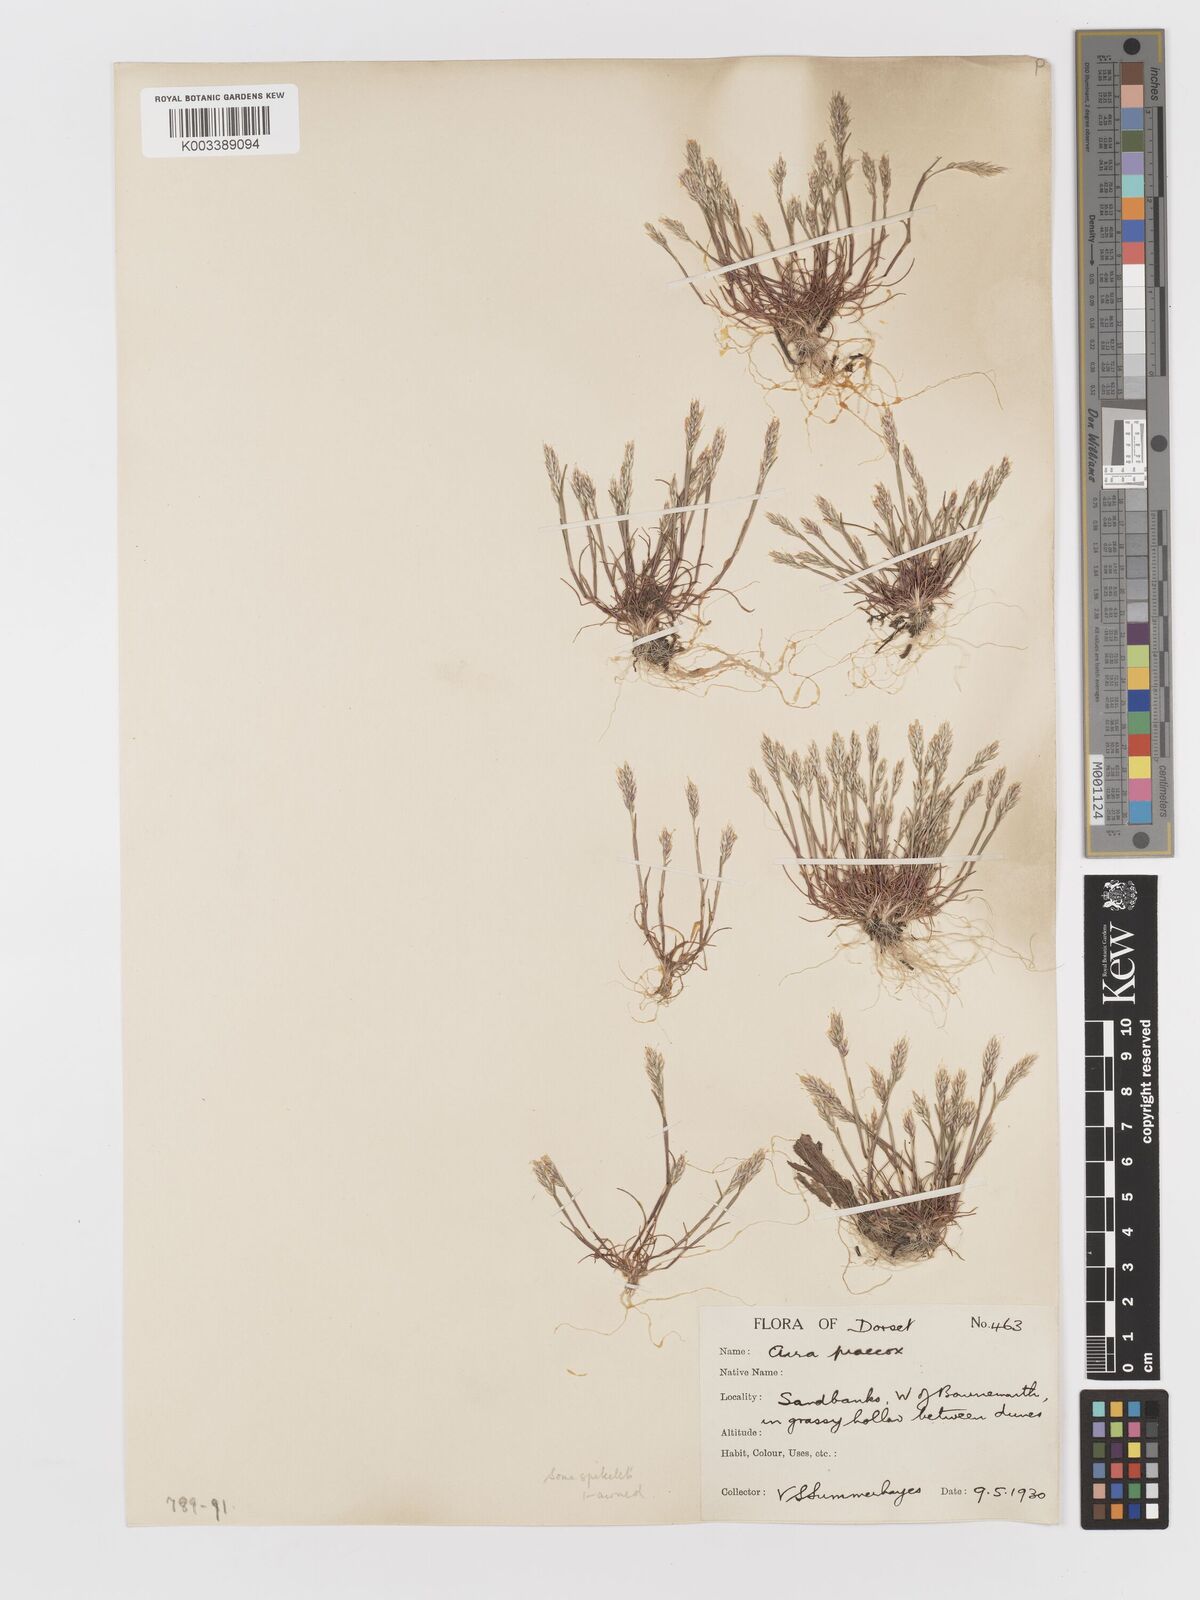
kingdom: Plantae
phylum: Tracheophyta
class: Liliopsida
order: Poales
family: Poaceae
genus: Aira
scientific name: Aira praecox
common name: Early hair-grass
